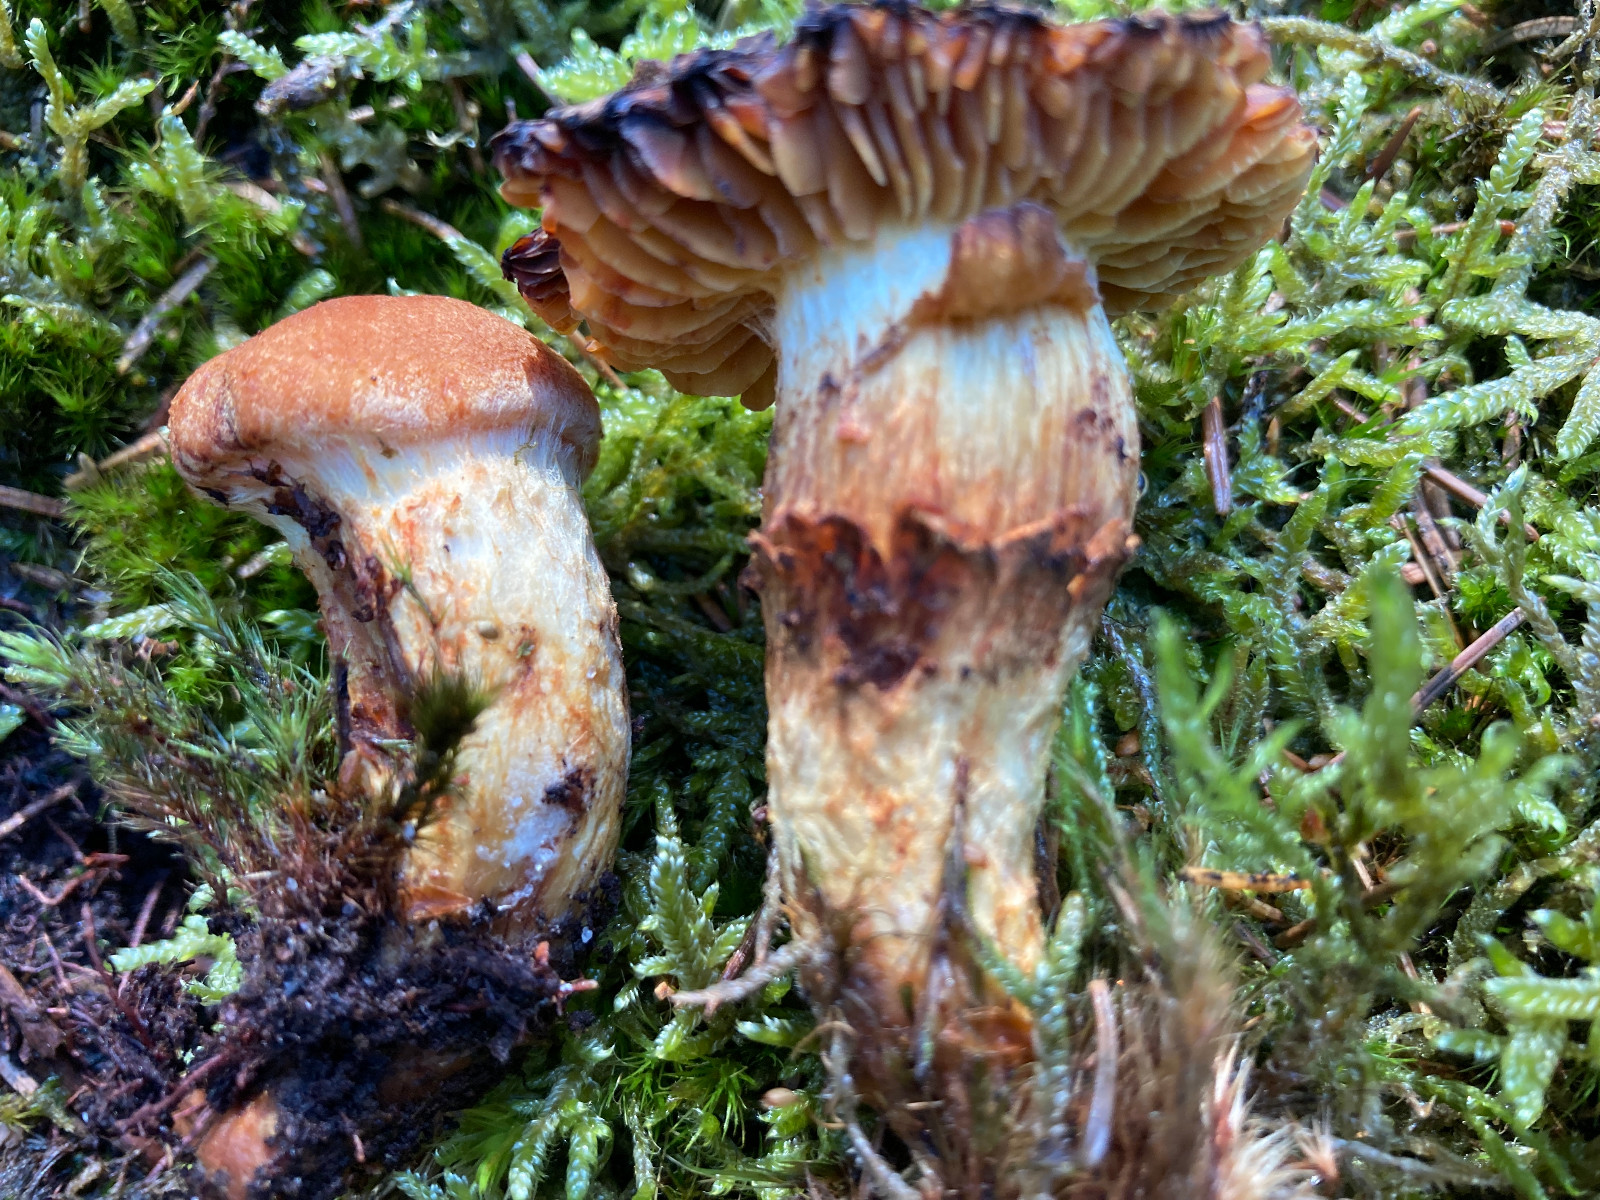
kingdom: Fungi
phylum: Basidiomycota
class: Agaricomycetes
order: Agaricales
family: Cortinariaceae
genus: Aureonarius
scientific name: Aureonarius limonius
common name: orangegul slørhat
